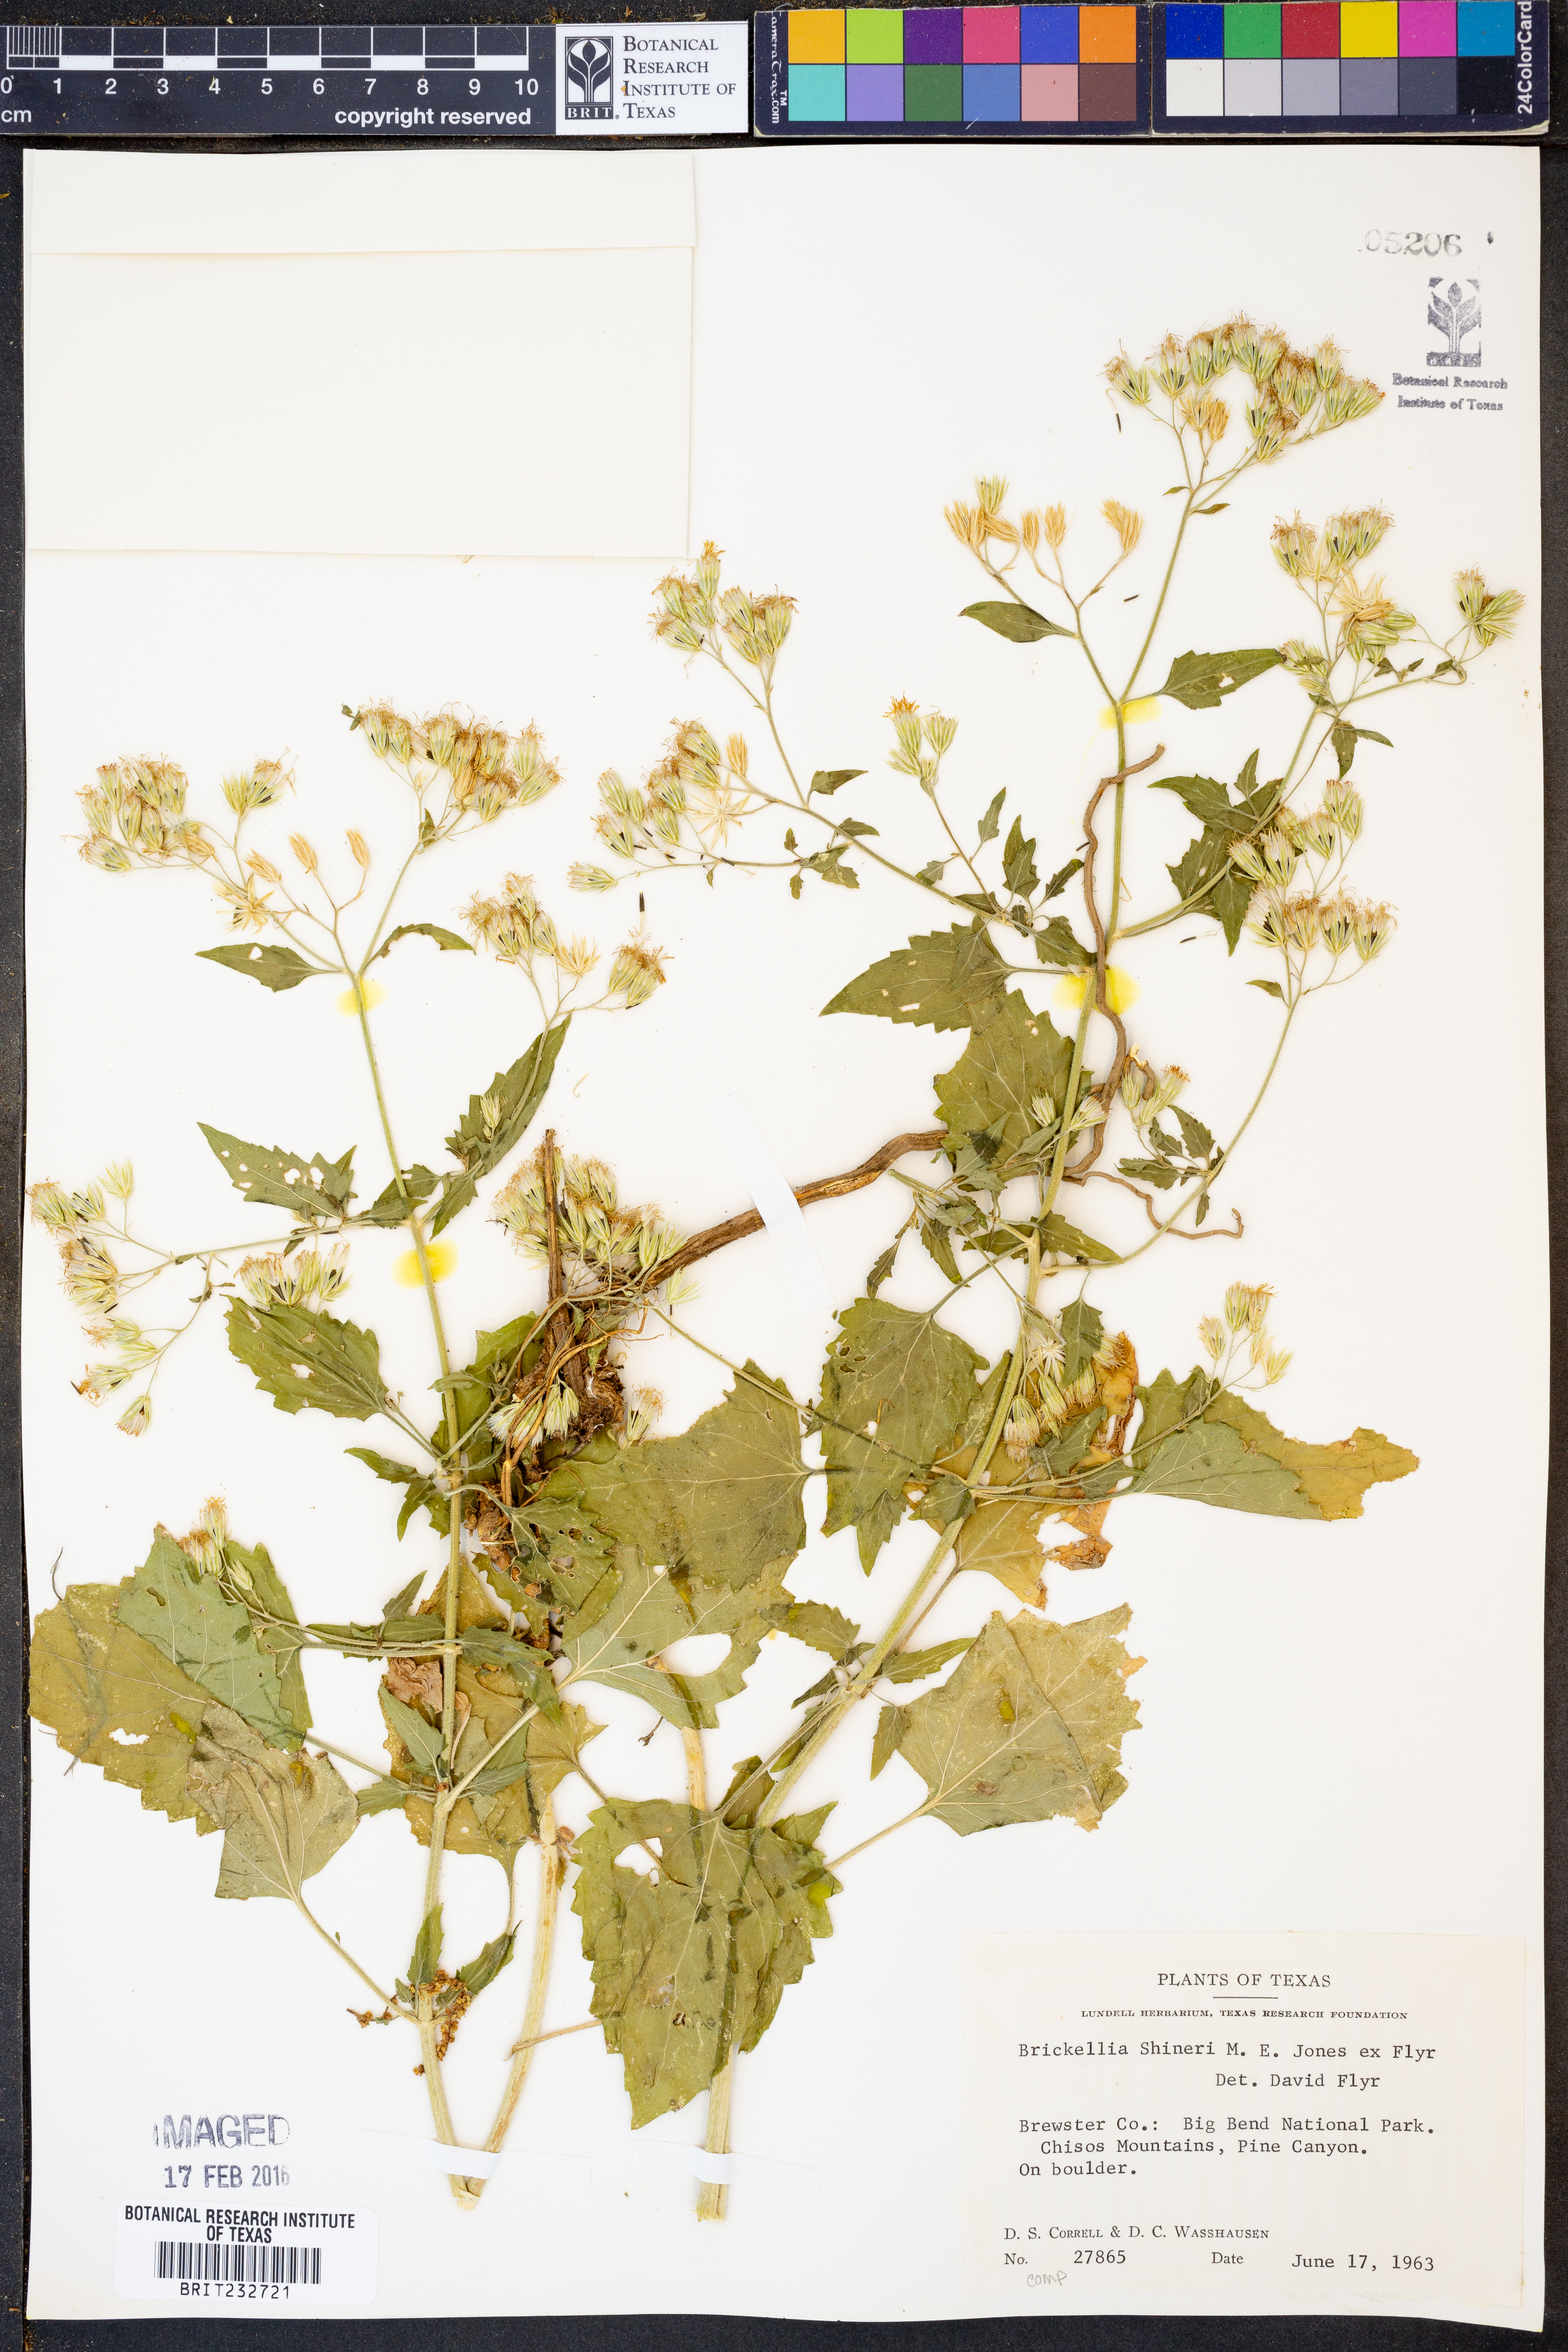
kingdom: Plantae
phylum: Tracheophyta
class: Magnoliopsida
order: Asterales
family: Asteraceae
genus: Flyriella
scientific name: Flyriella parryi
